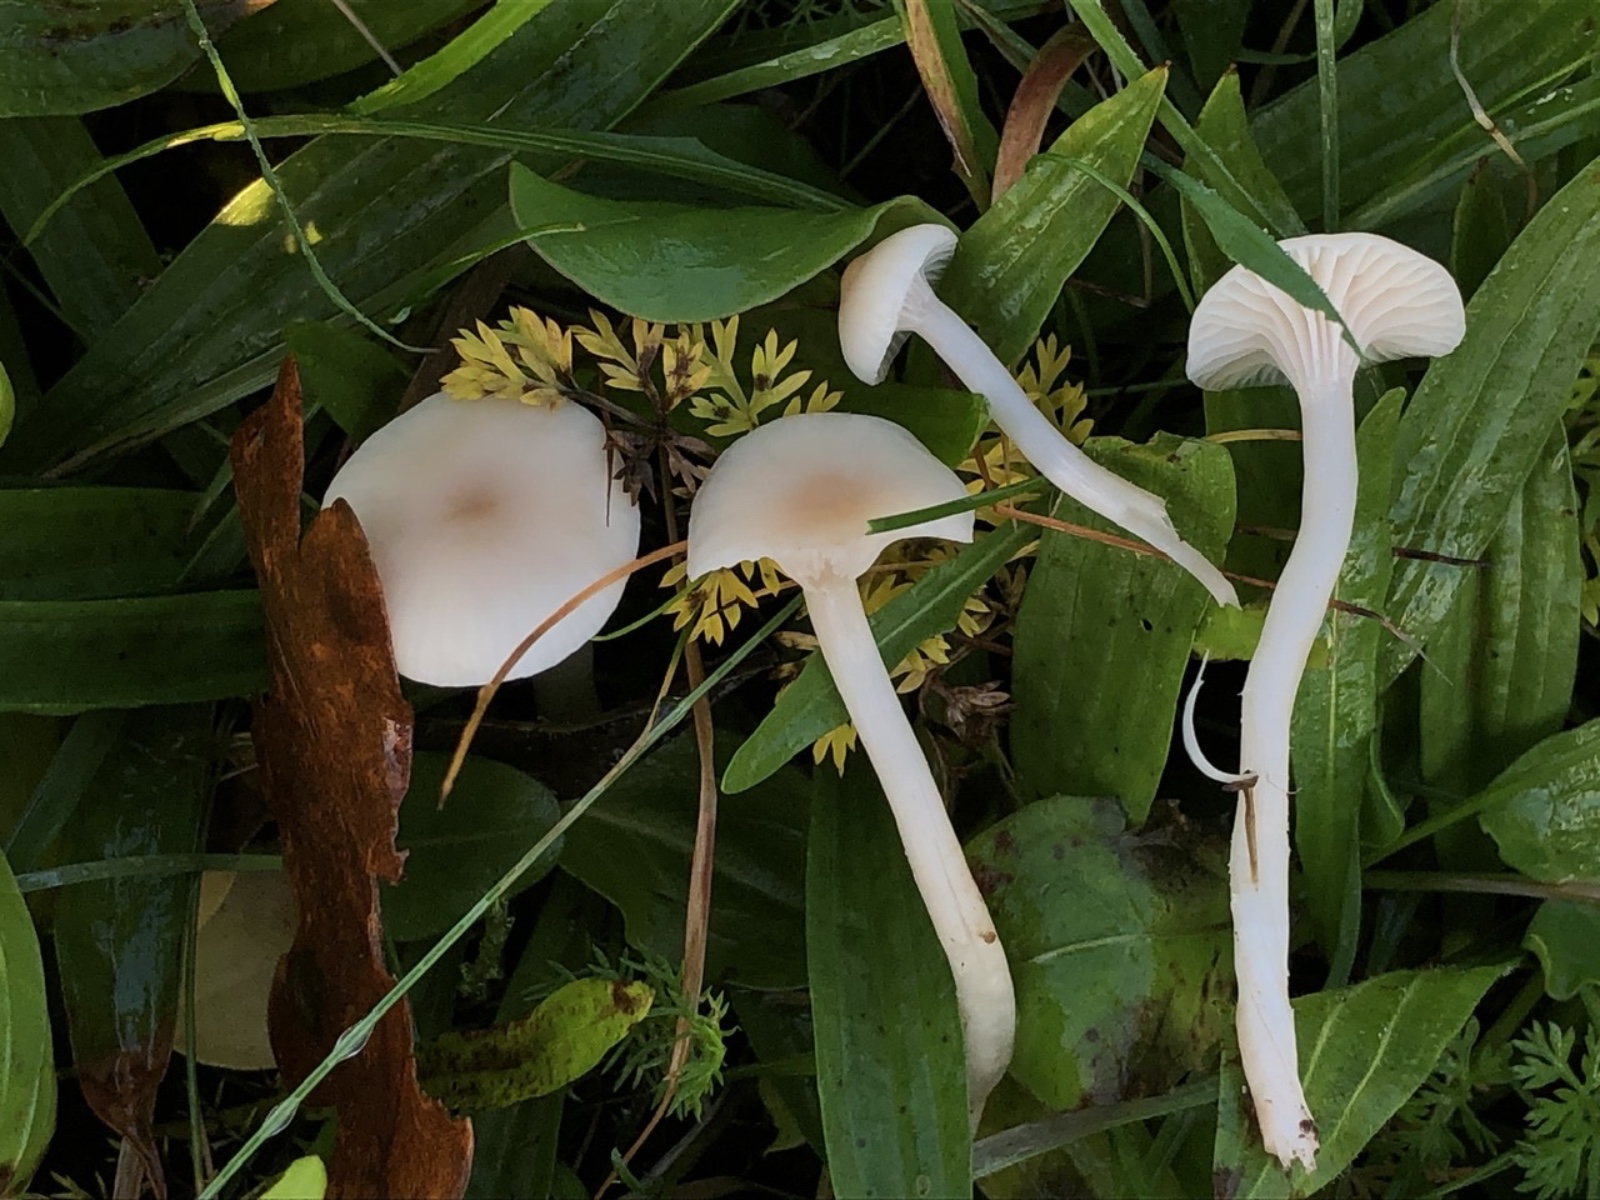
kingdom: Fungi
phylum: Basidiomycota
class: Agaricomycetes
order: Agaricales
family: Hygrophoraceae
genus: Cuphophyllus
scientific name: Cuphophyllus virgineus
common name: brunøjet vokshat
